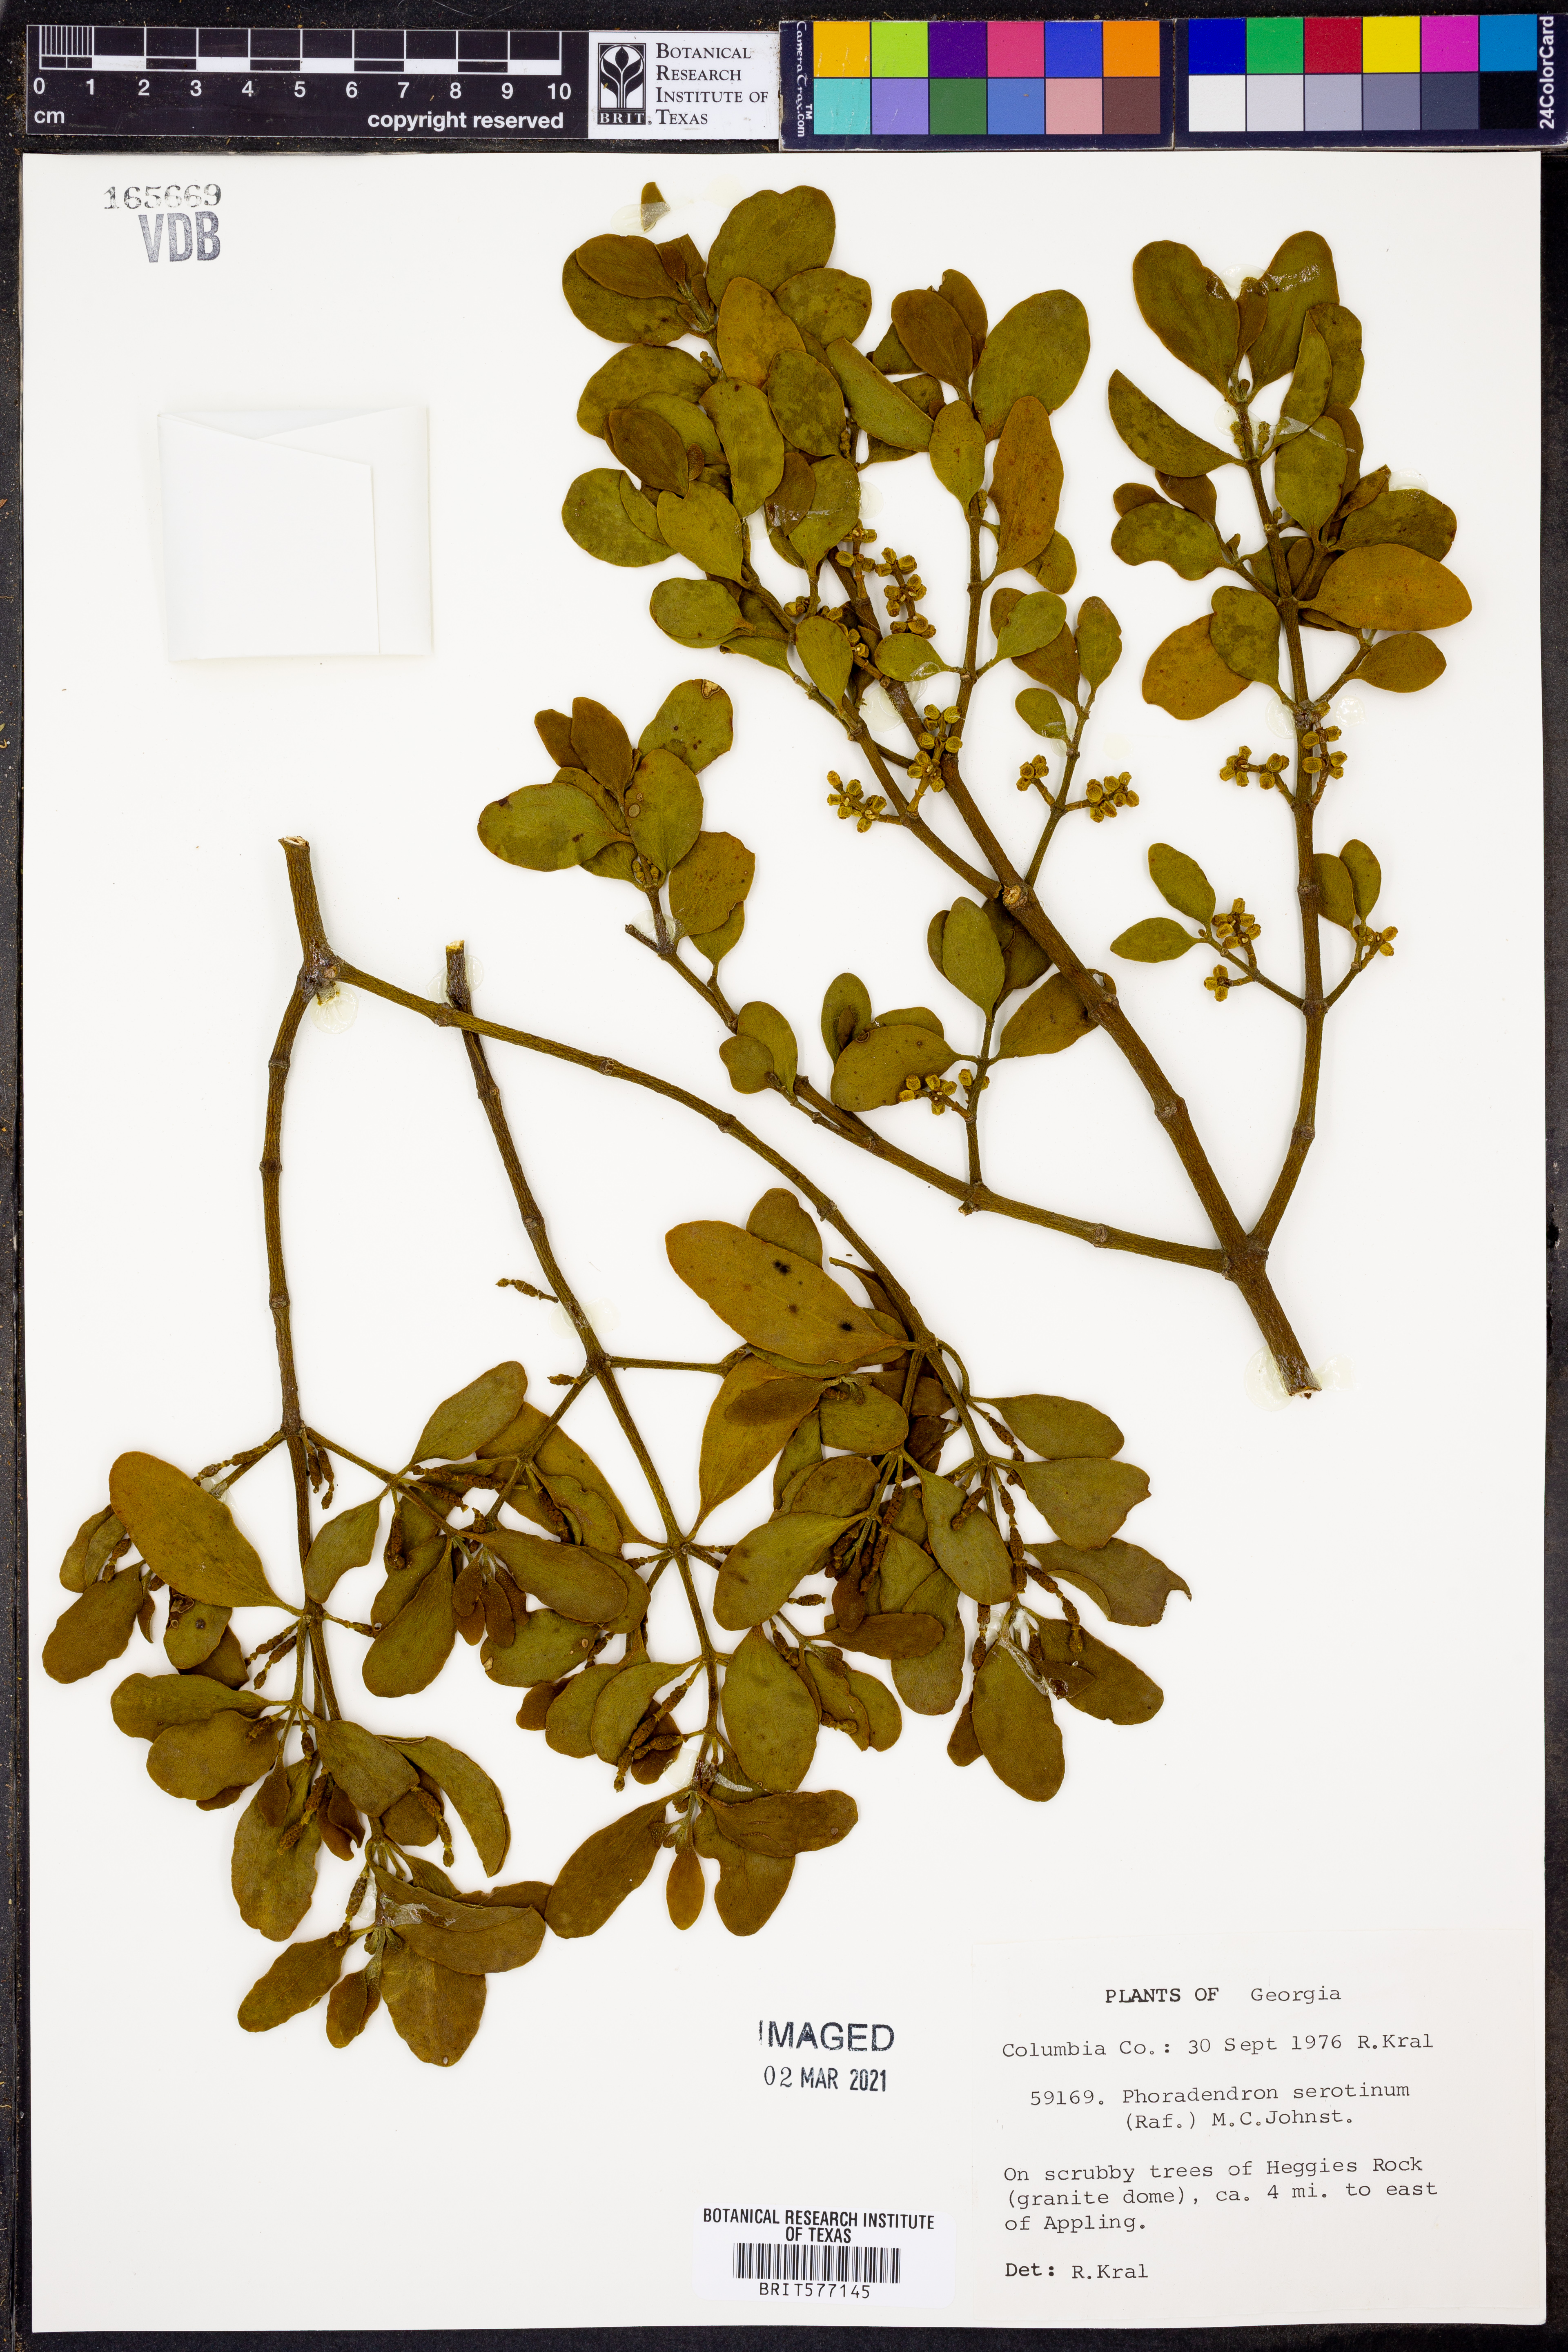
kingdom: Plantae
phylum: Tracheophyta
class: Magnoliopsida
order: Santalales
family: Viscaceae
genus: Phoradendron
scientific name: Phoradendron leucarpum
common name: Pacific mistletoe
